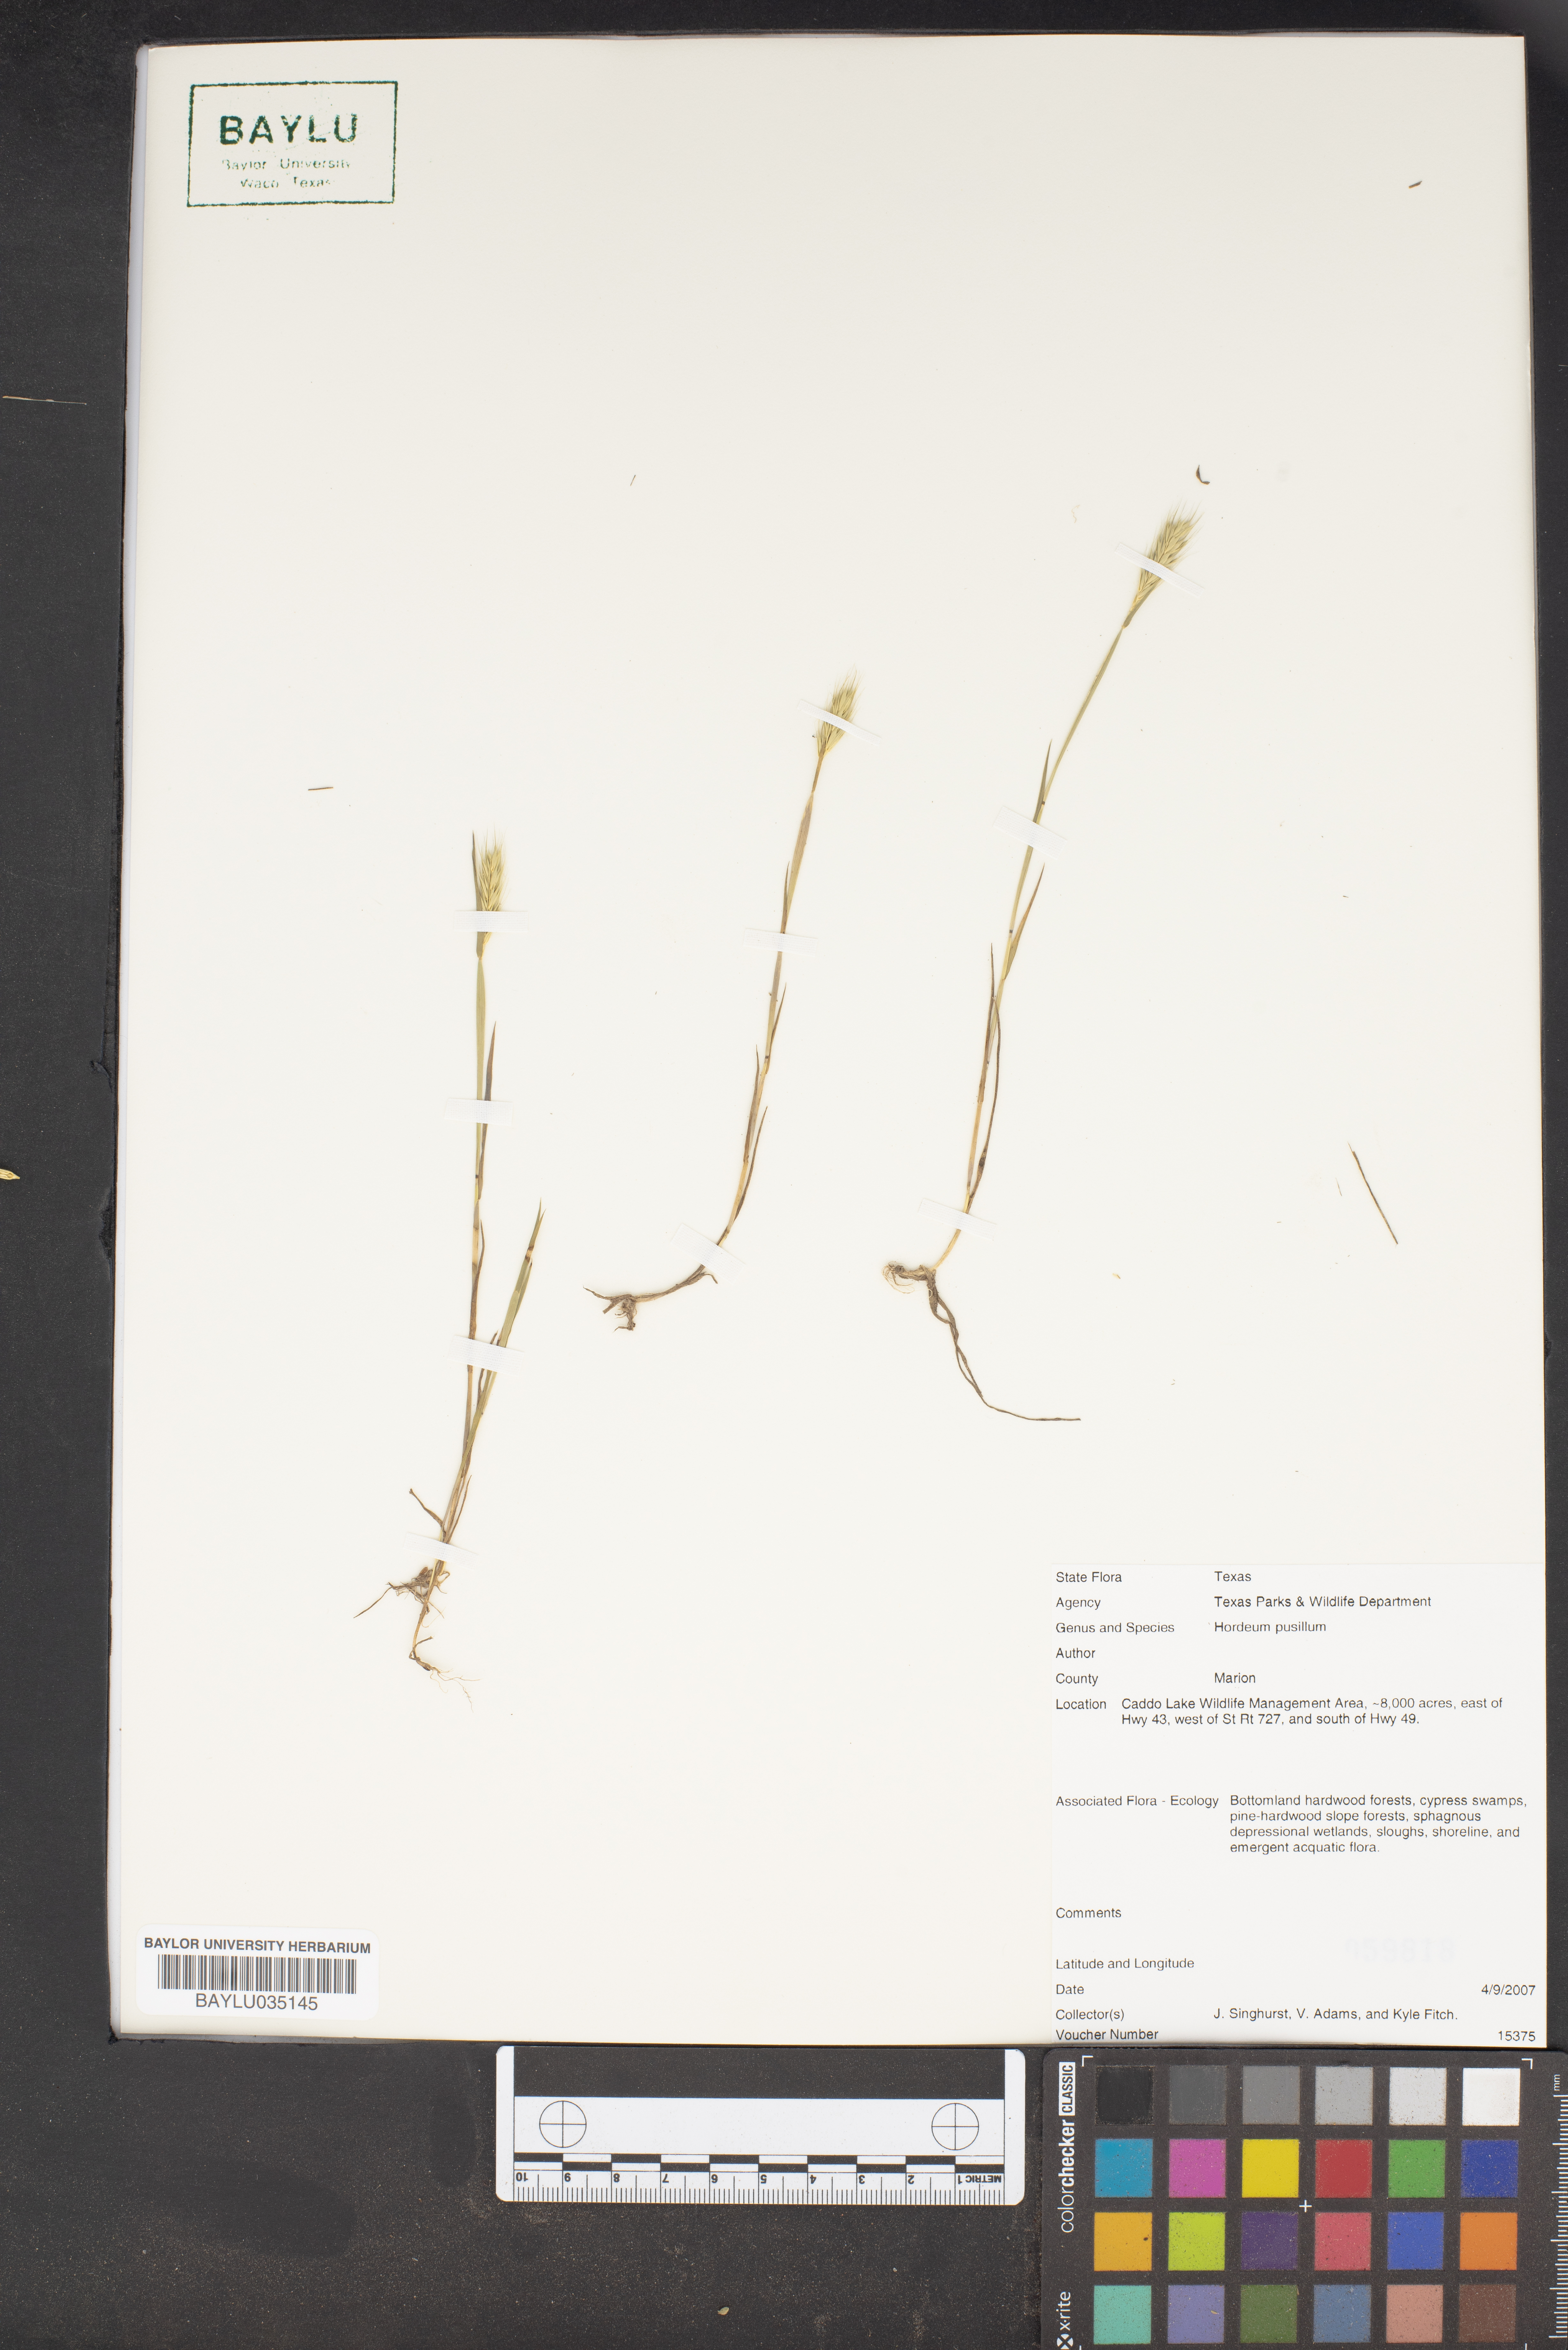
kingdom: Plantae
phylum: Tracheophyta
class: Liliopsida
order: Poales
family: Poaceae
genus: Hordeum
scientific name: Hordeum pusillum
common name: Little barley
